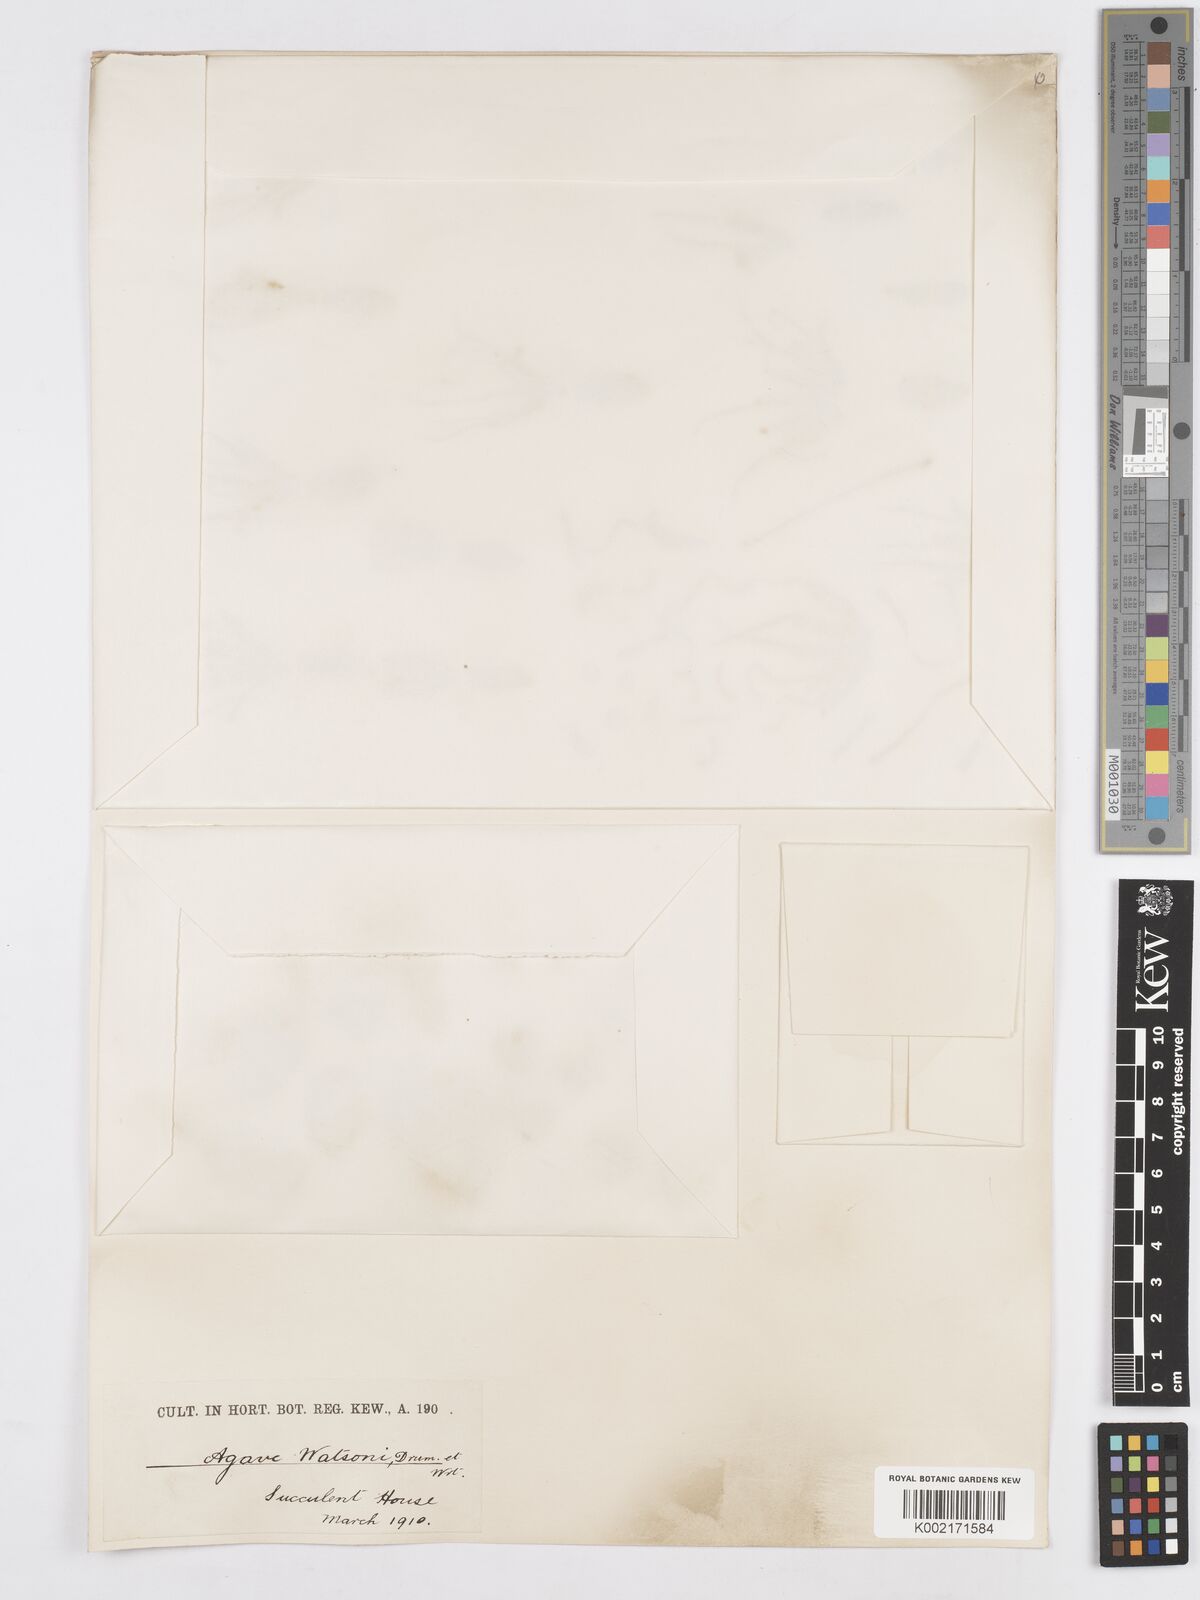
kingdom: Plantae
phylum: Tracheophyta
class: Liliopsida
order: Asparagales
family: Asparagaceae
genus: Agave
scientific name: Agave watsonii
